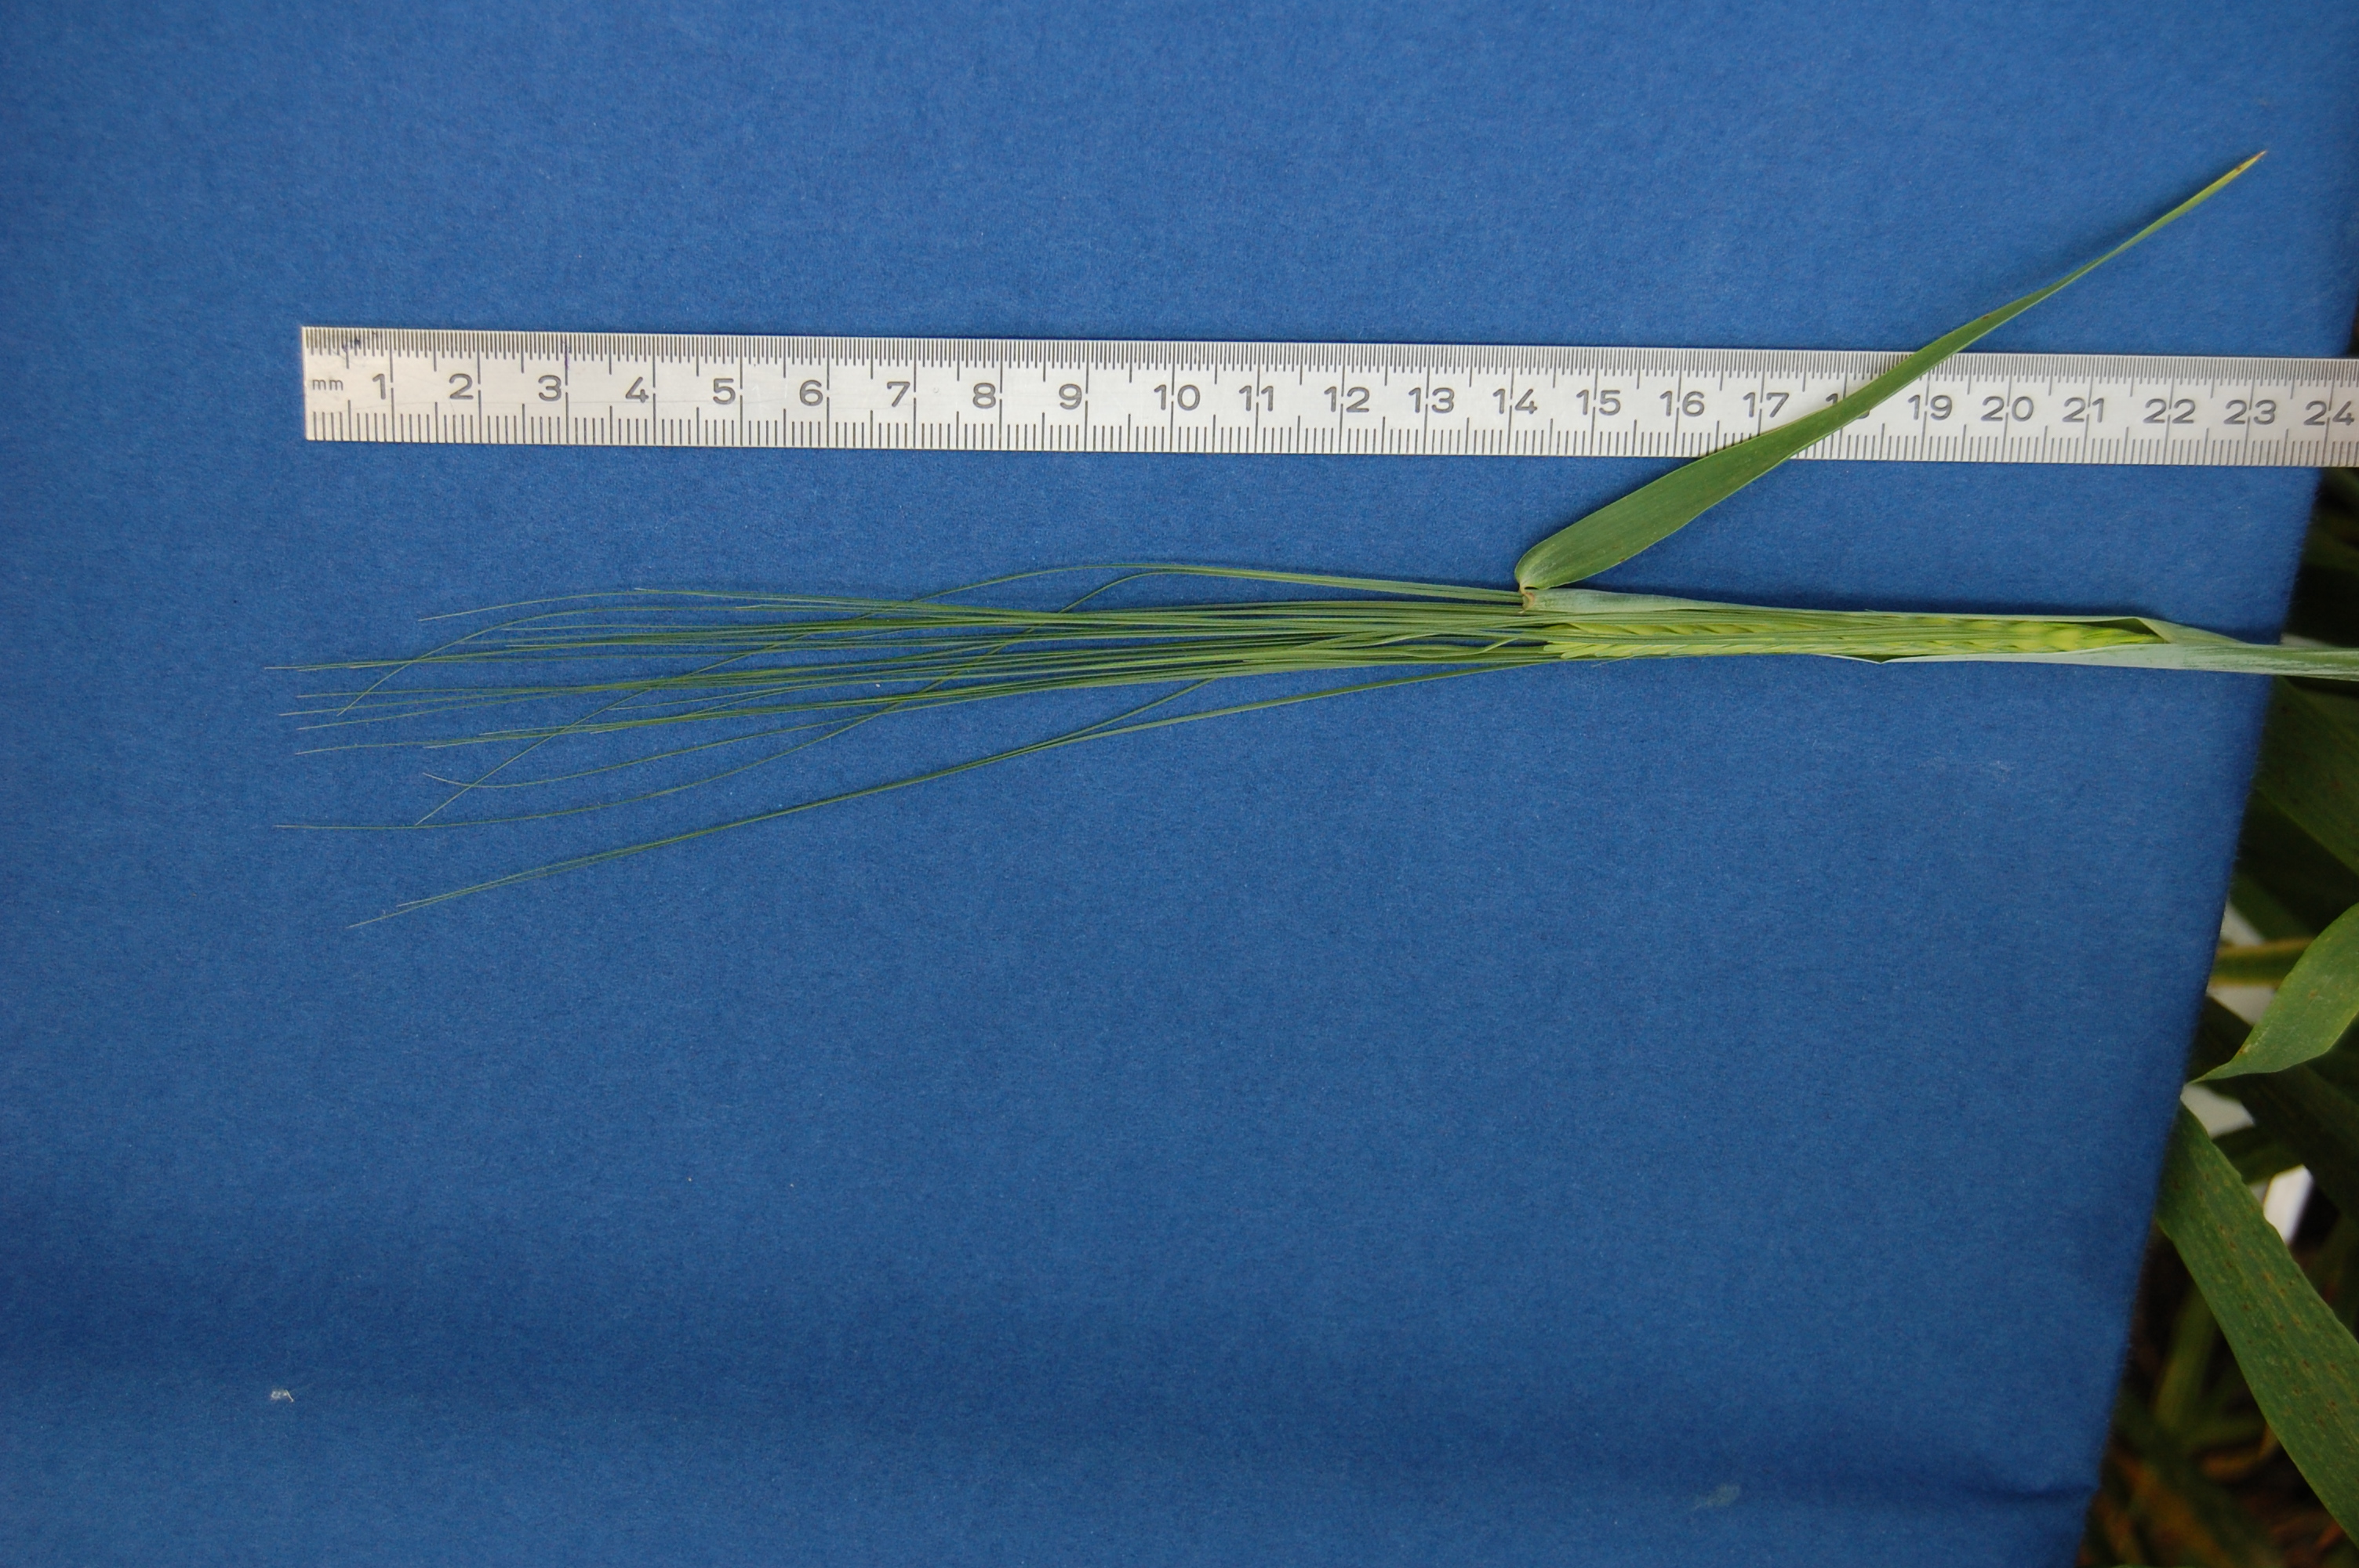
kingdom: Plantae
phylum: Tracheophyta
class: Liliopsida
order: Poales
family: Poaceae
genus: Hordeum
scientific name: Hordeum vulgare
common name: Common barley
